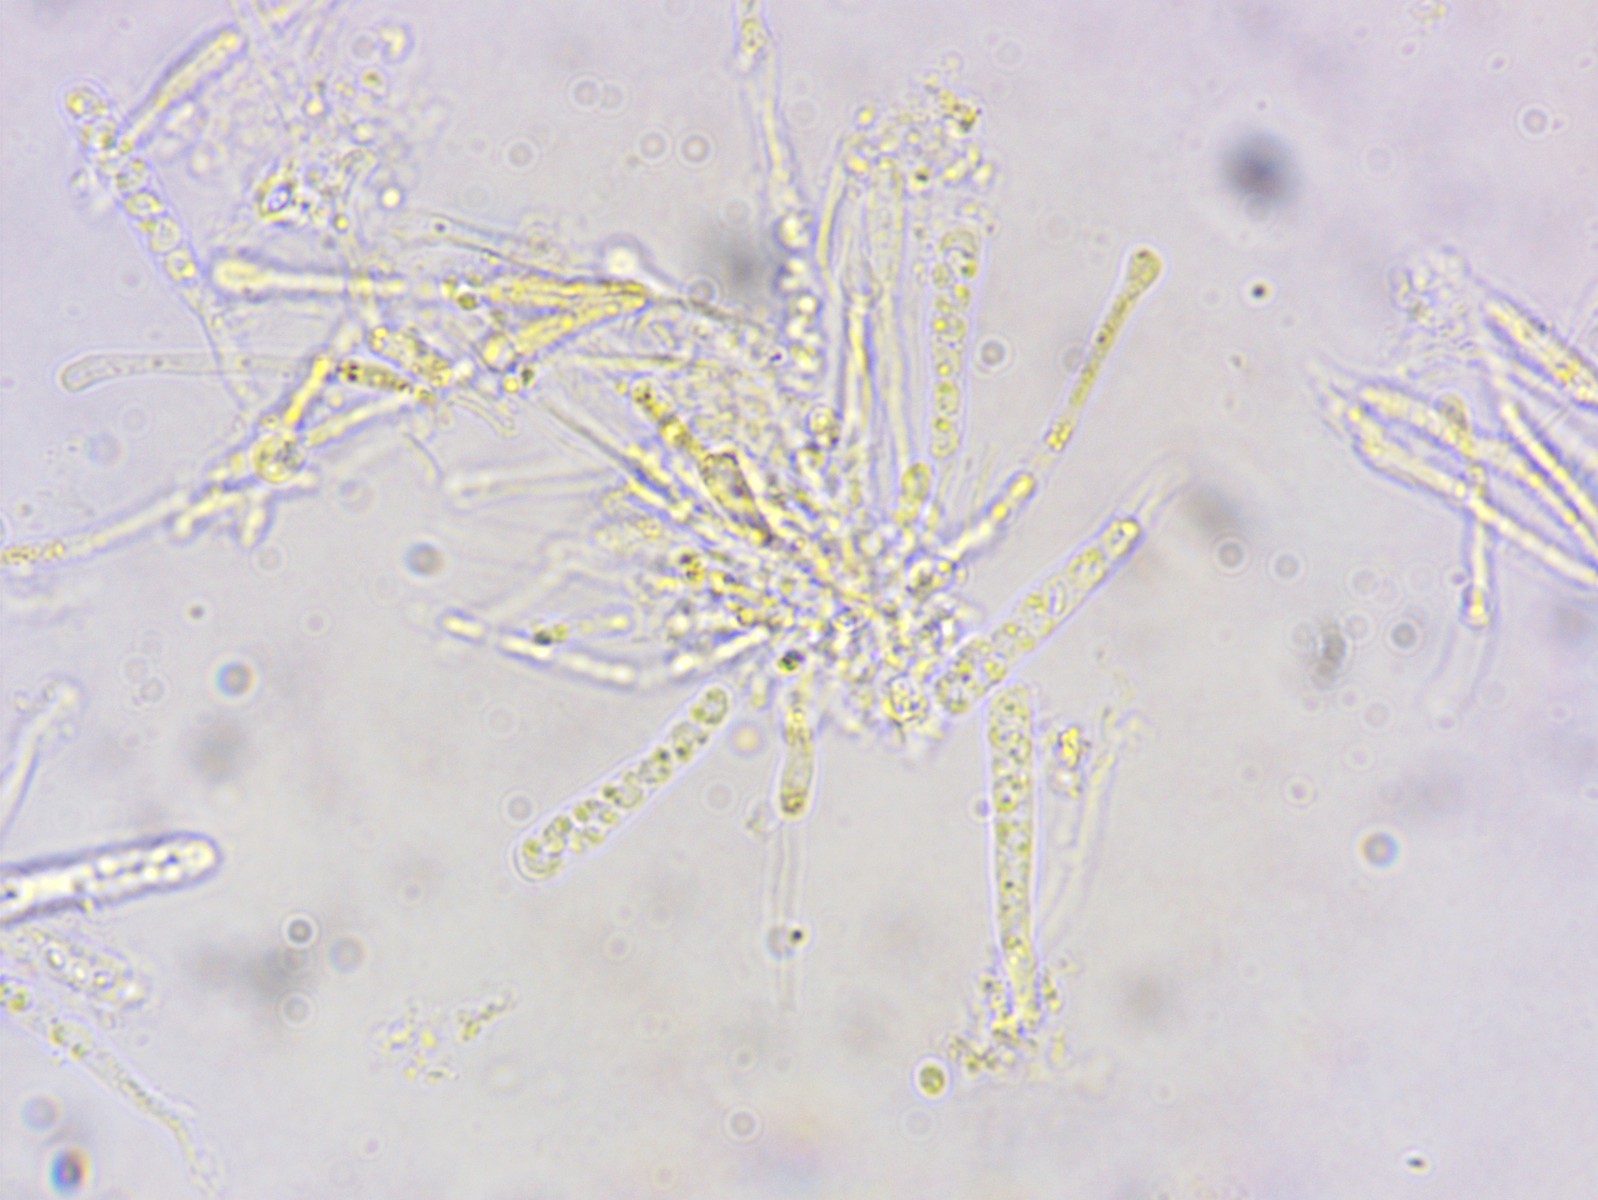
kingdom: Fungi
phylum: Ascomycota
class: Orbiliomycetes
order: Orbiliales
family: Orbiliaceae
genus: Orbilia
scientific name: Orbilia xanthostigma
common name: krumsporet voksskive
